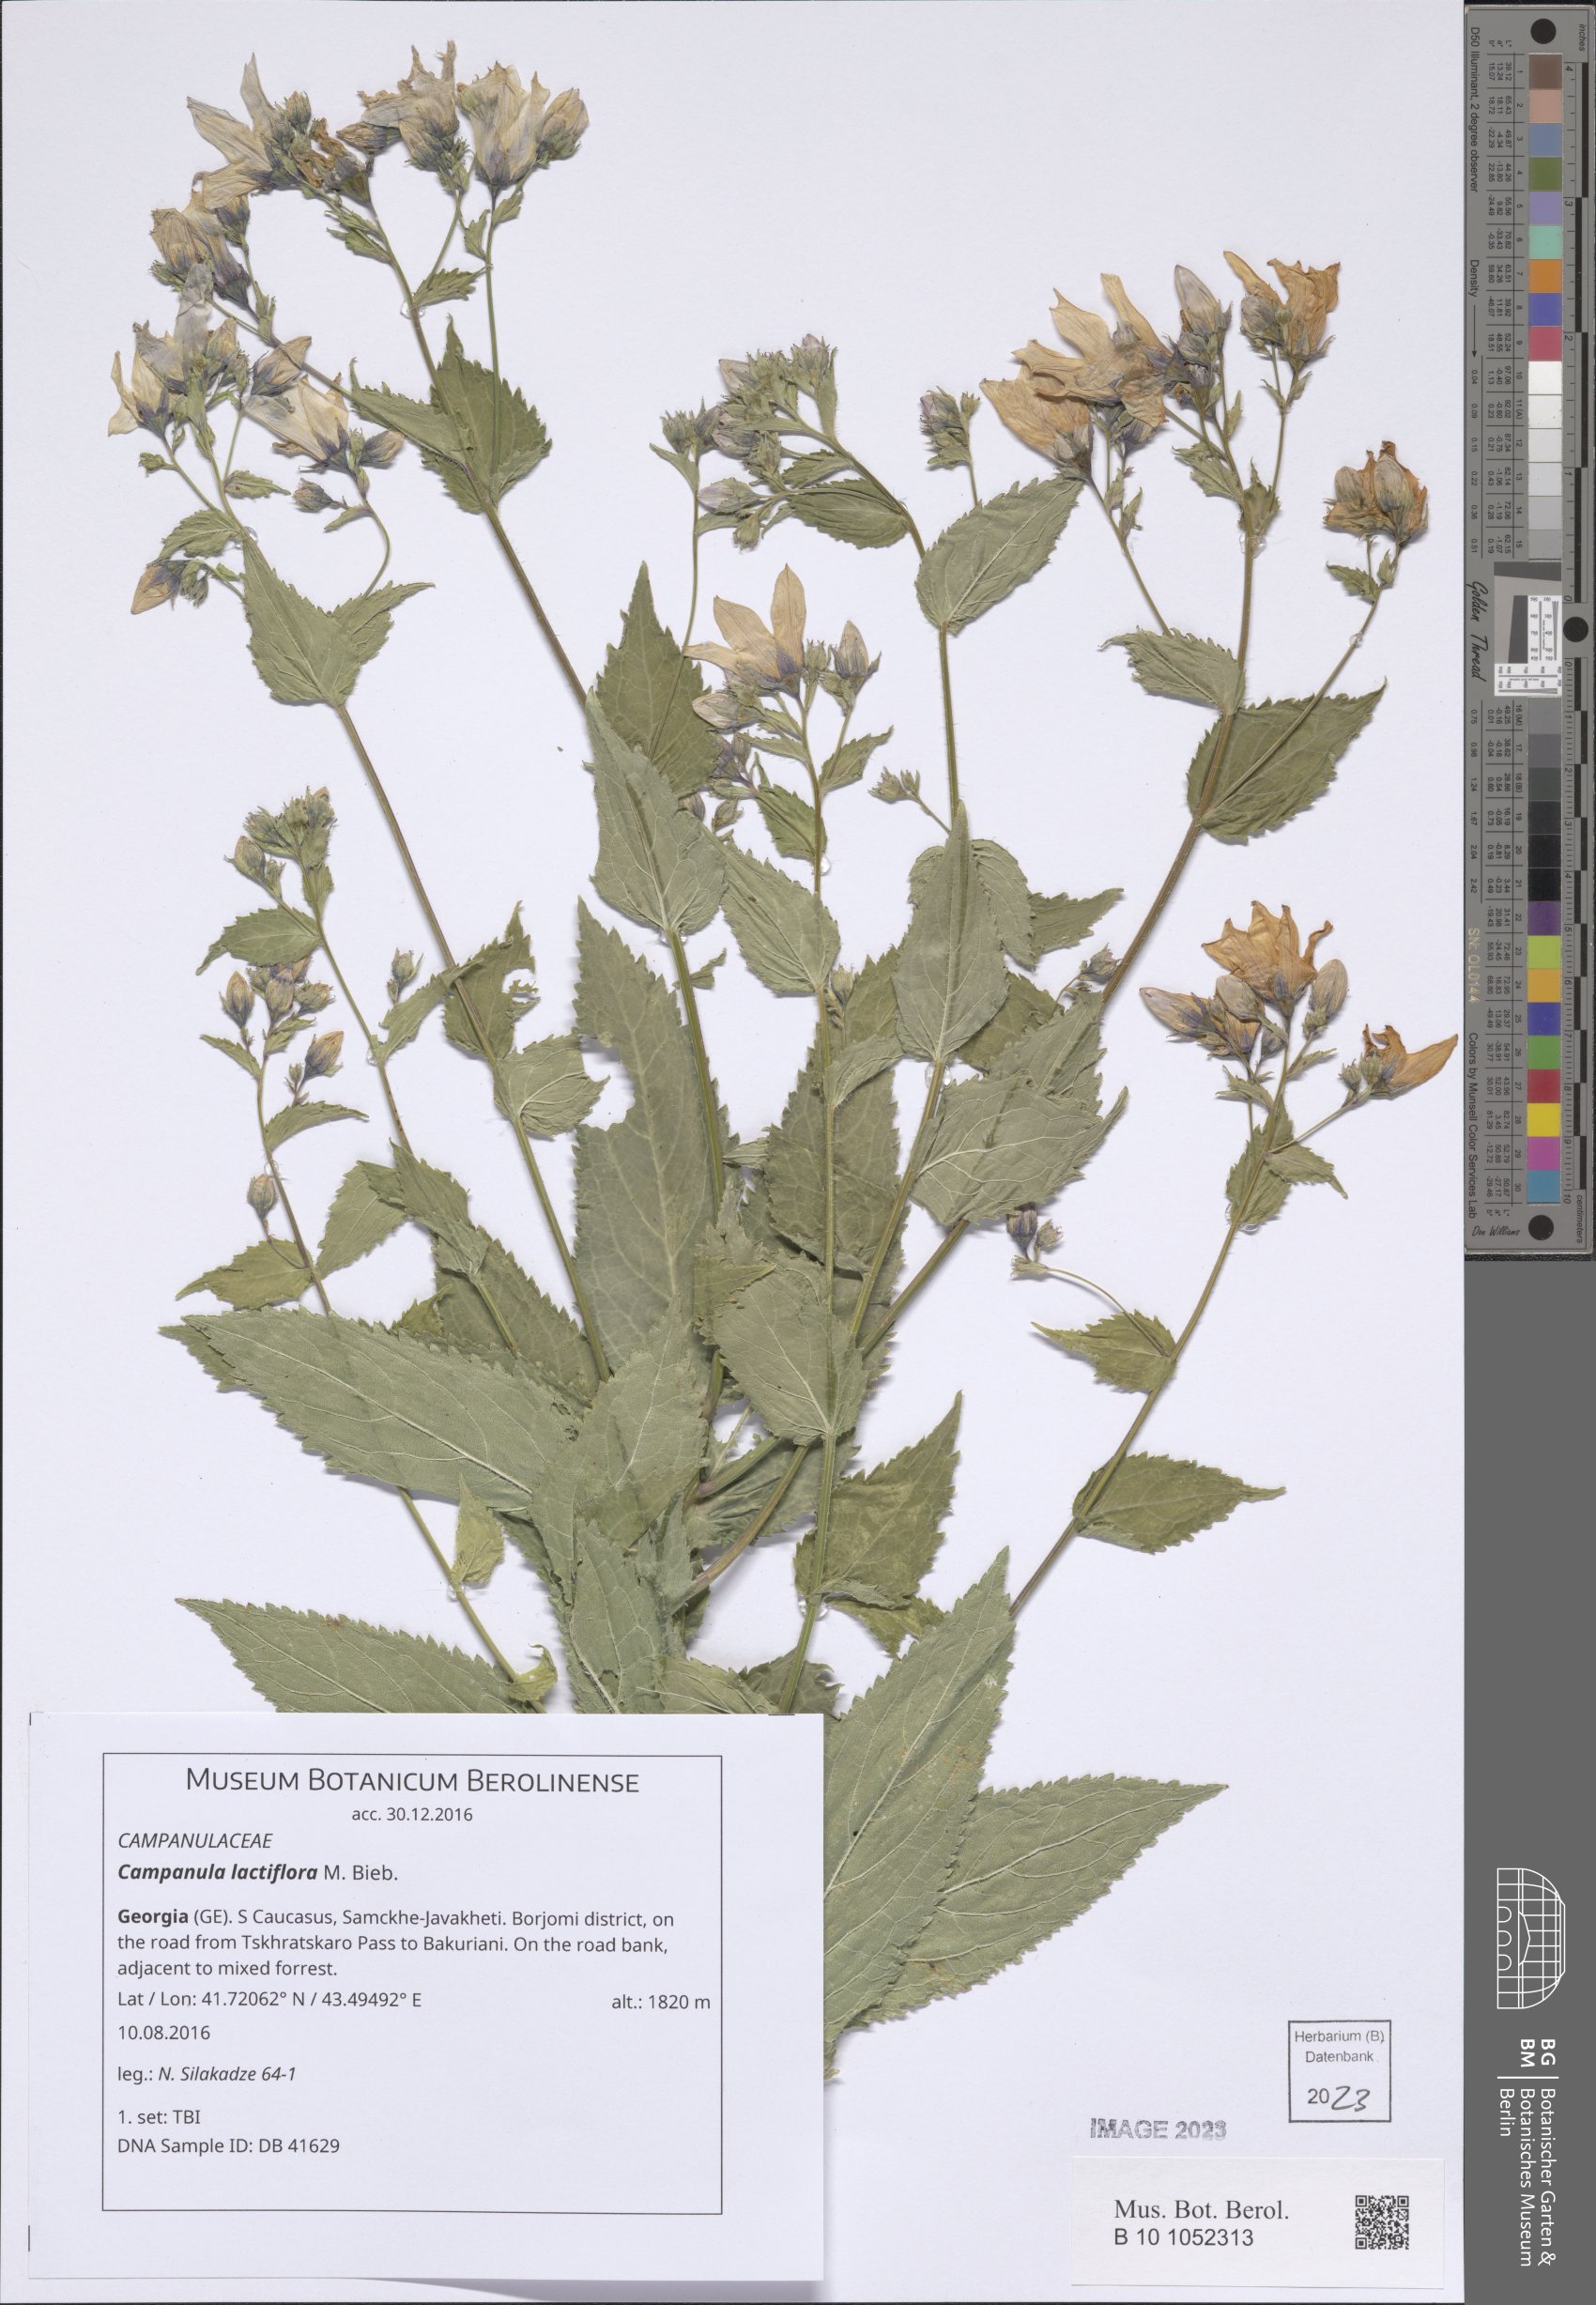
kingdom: Plantae
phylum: Tracheophyta
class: Magnoliopsida
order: Asterales
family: Campanulaceae
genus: Campanula
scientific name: Campanula lactiflora
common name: Milky bellflower
